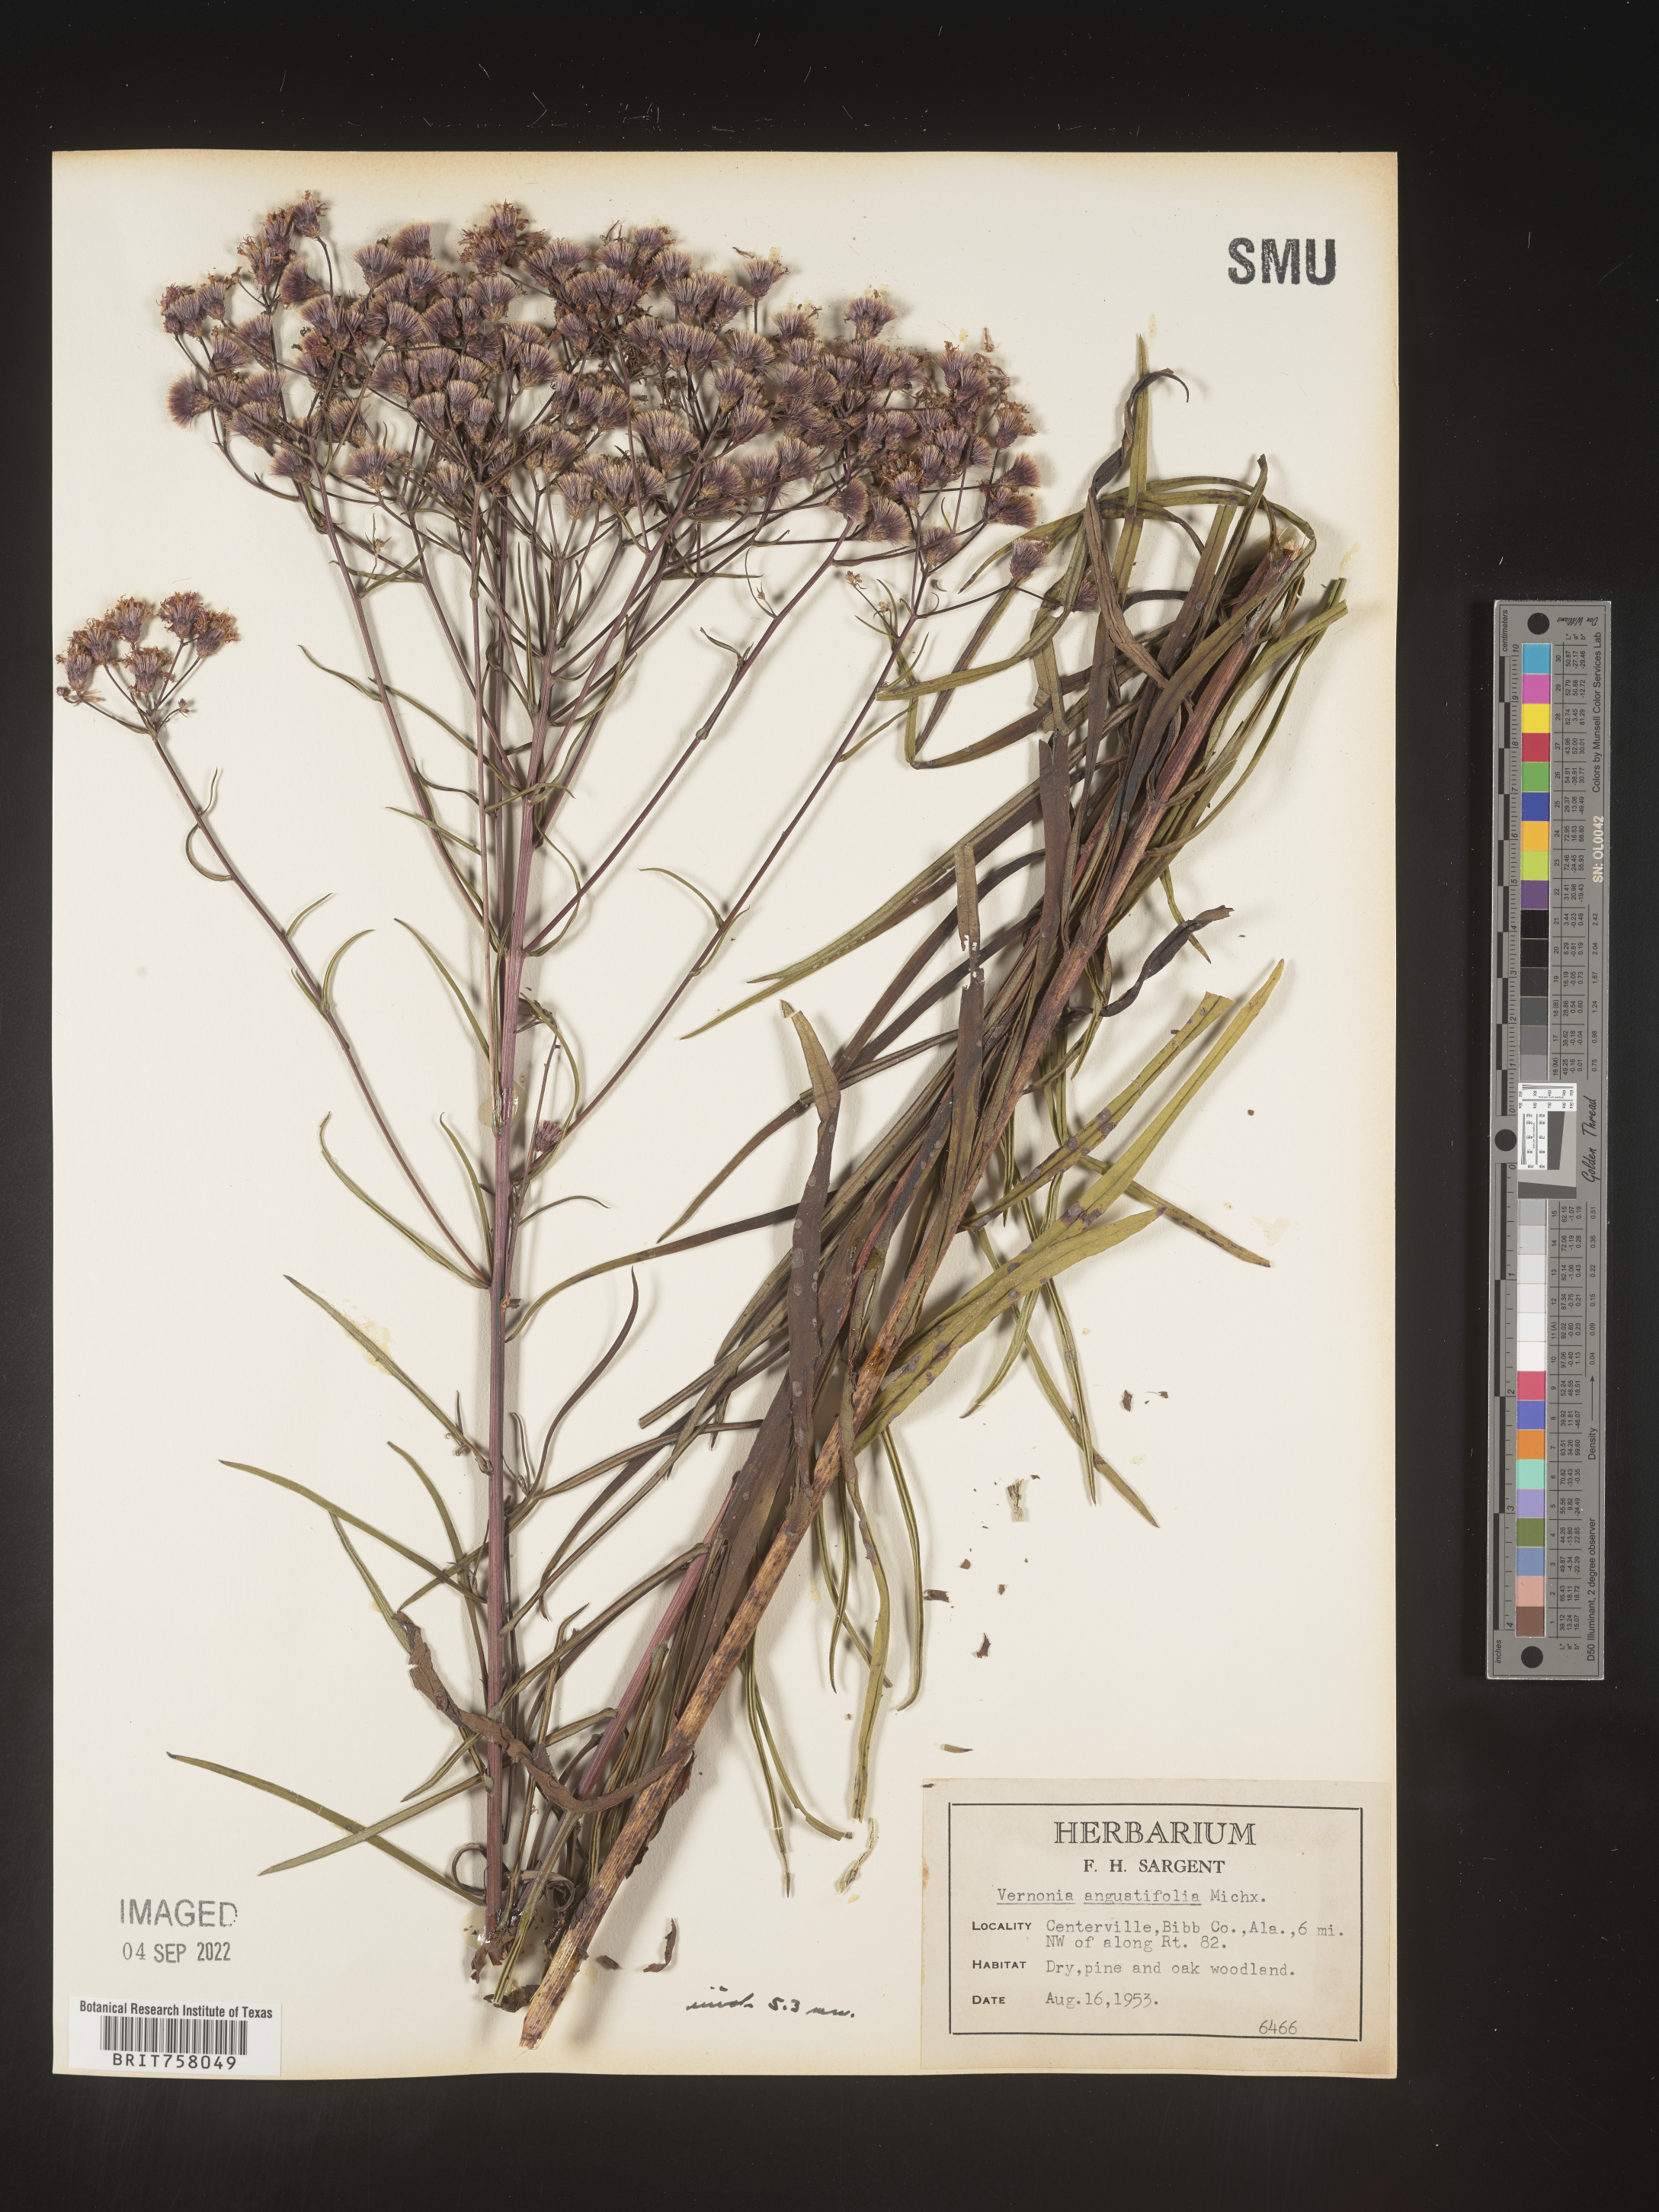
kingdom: Plantae
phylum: Tracheophyta
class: Magnoliopsida
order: Asterales
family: Asteraceae
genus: Vernonia
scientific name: Vernonia angustifolia
